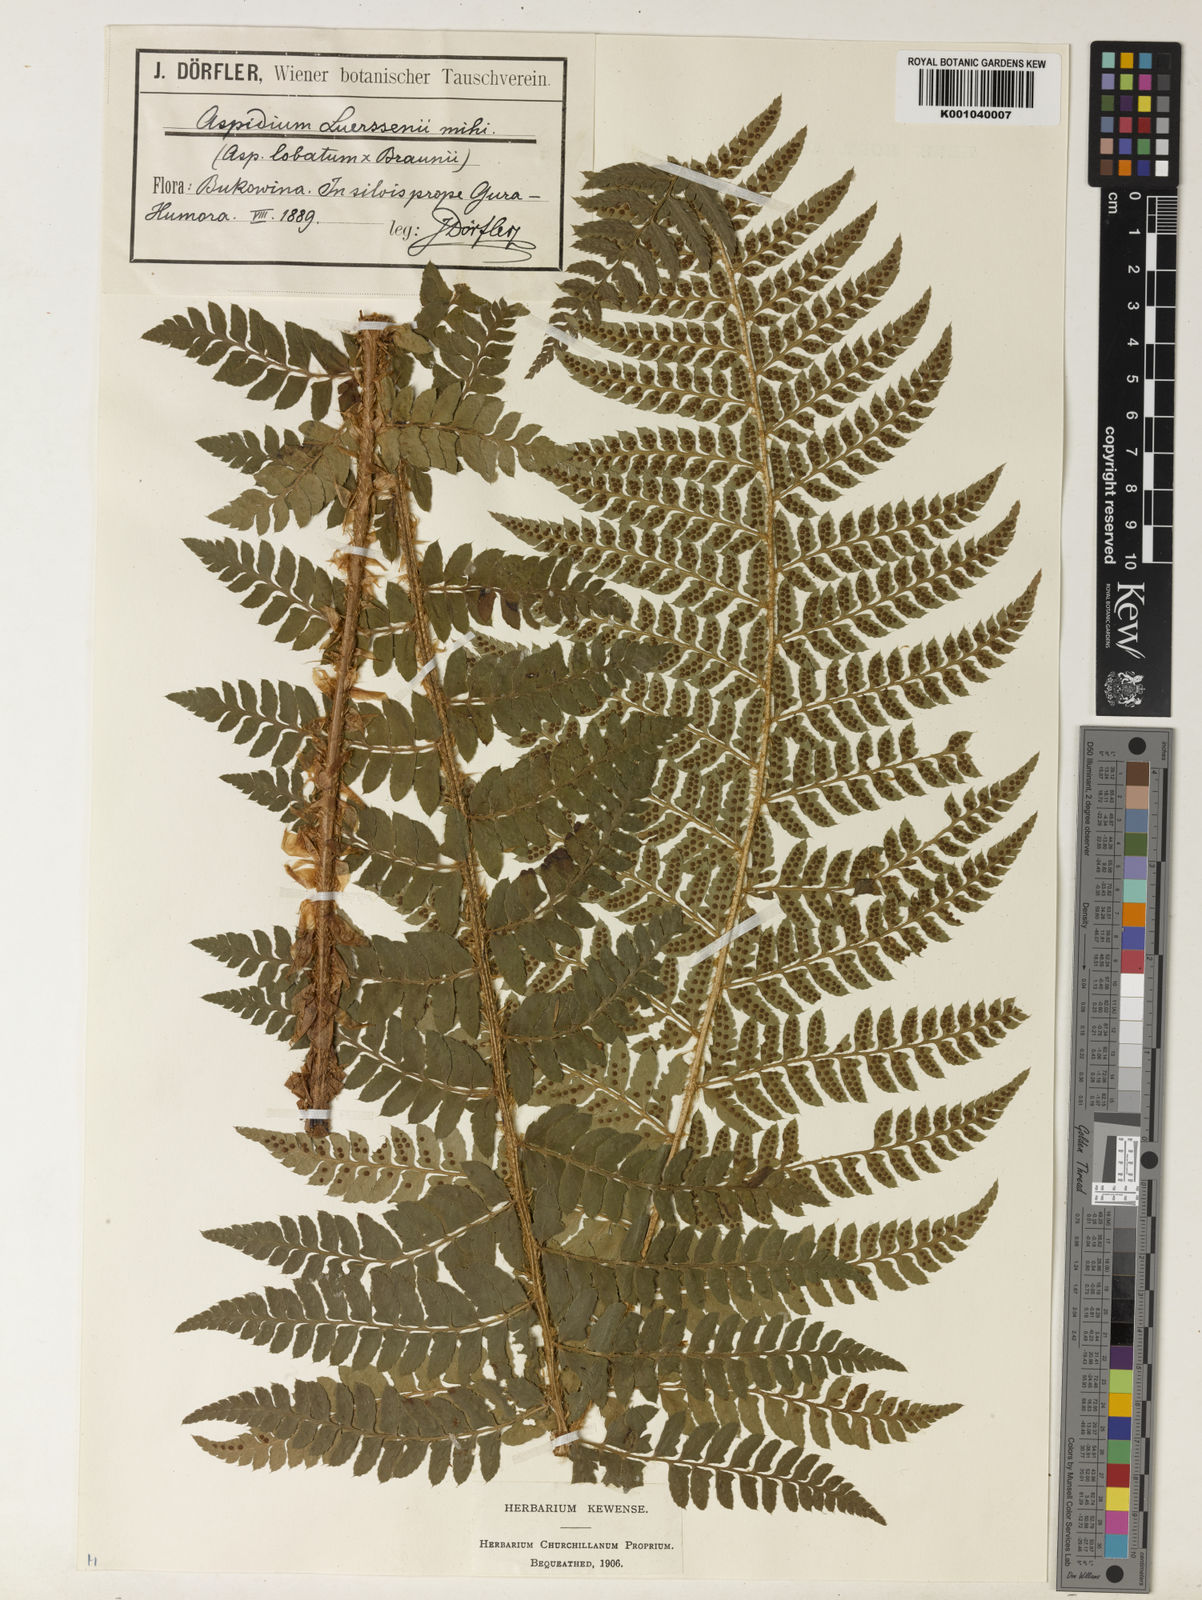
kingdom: Plantae
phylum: Tracheophyta
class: Polypodiopsida
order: Polypodiales
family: Dryopteridaceae
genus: Polystichum
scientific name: Polystichum aculeatum
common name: Hard shield-fern
